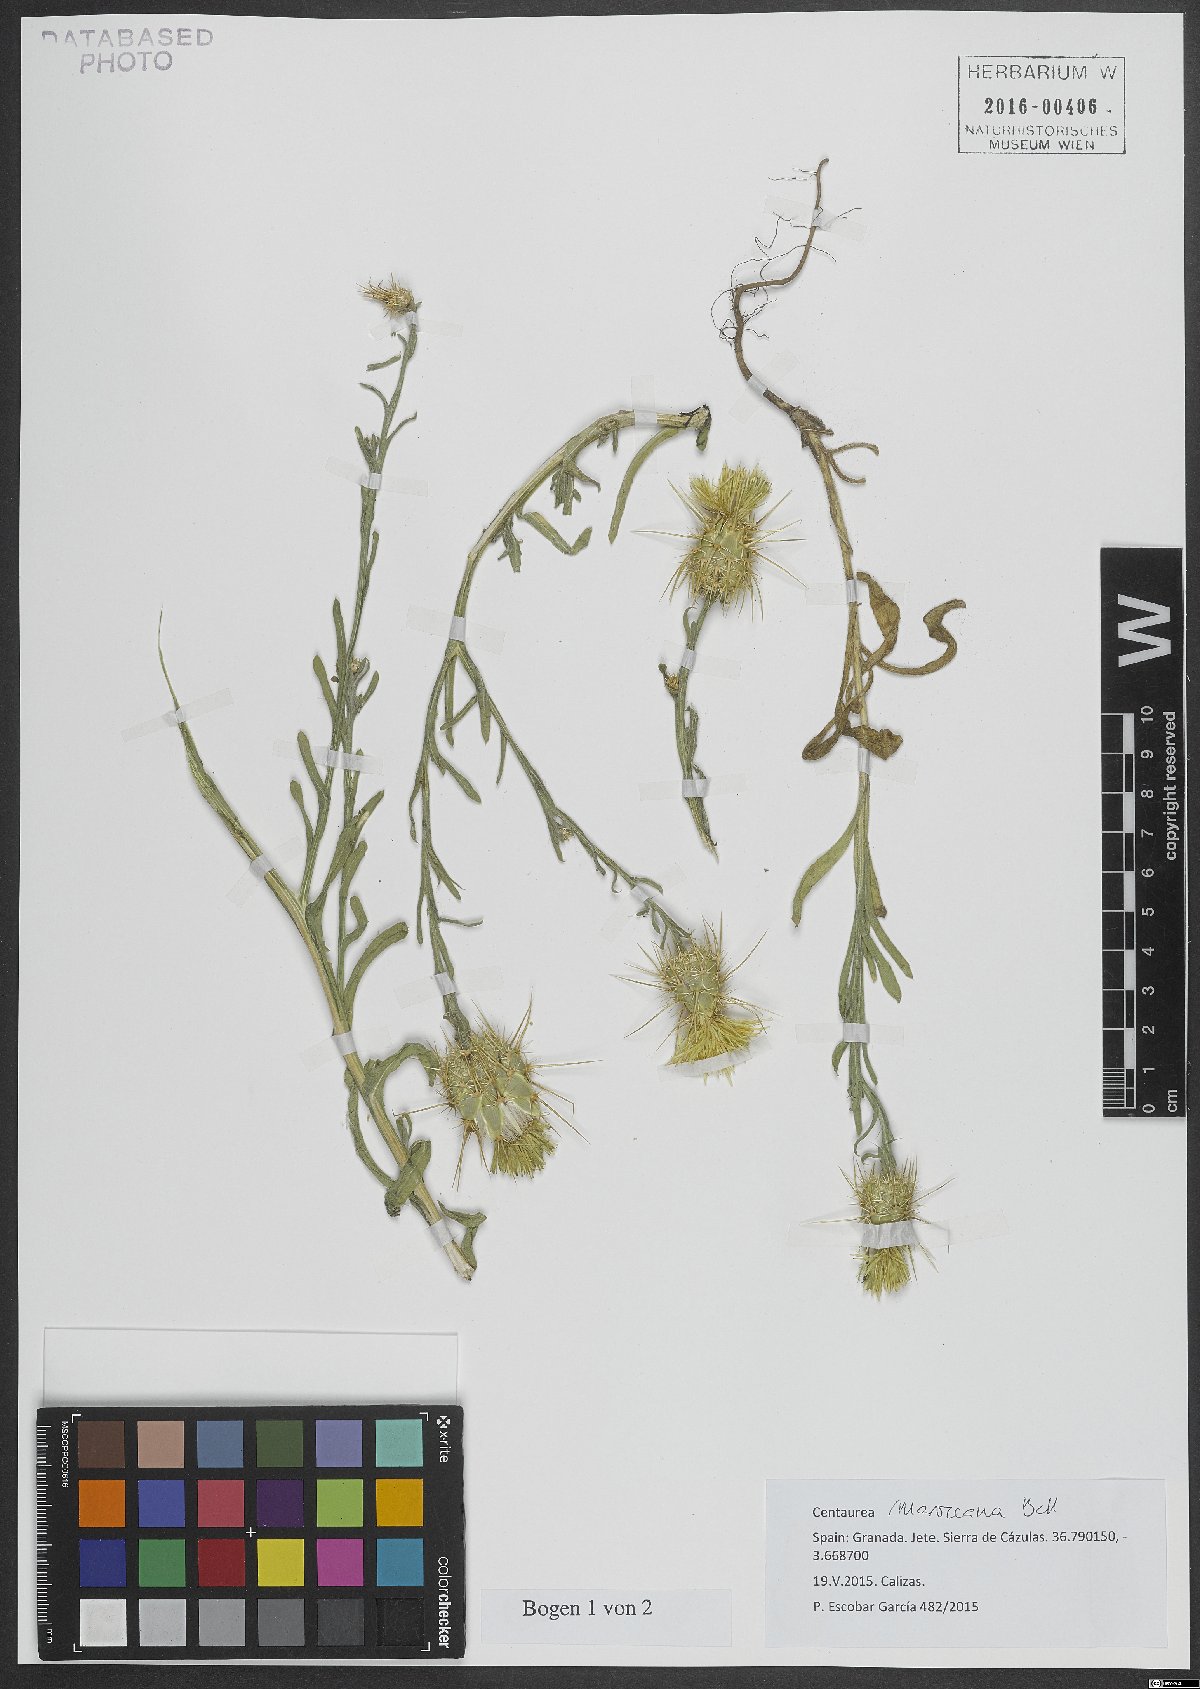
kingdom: Plantae
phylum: Tracheophyta
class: Magnoliopsida
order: Asterales
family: Asteraceae
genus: Centaurea
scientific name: Centaurea maroccana
